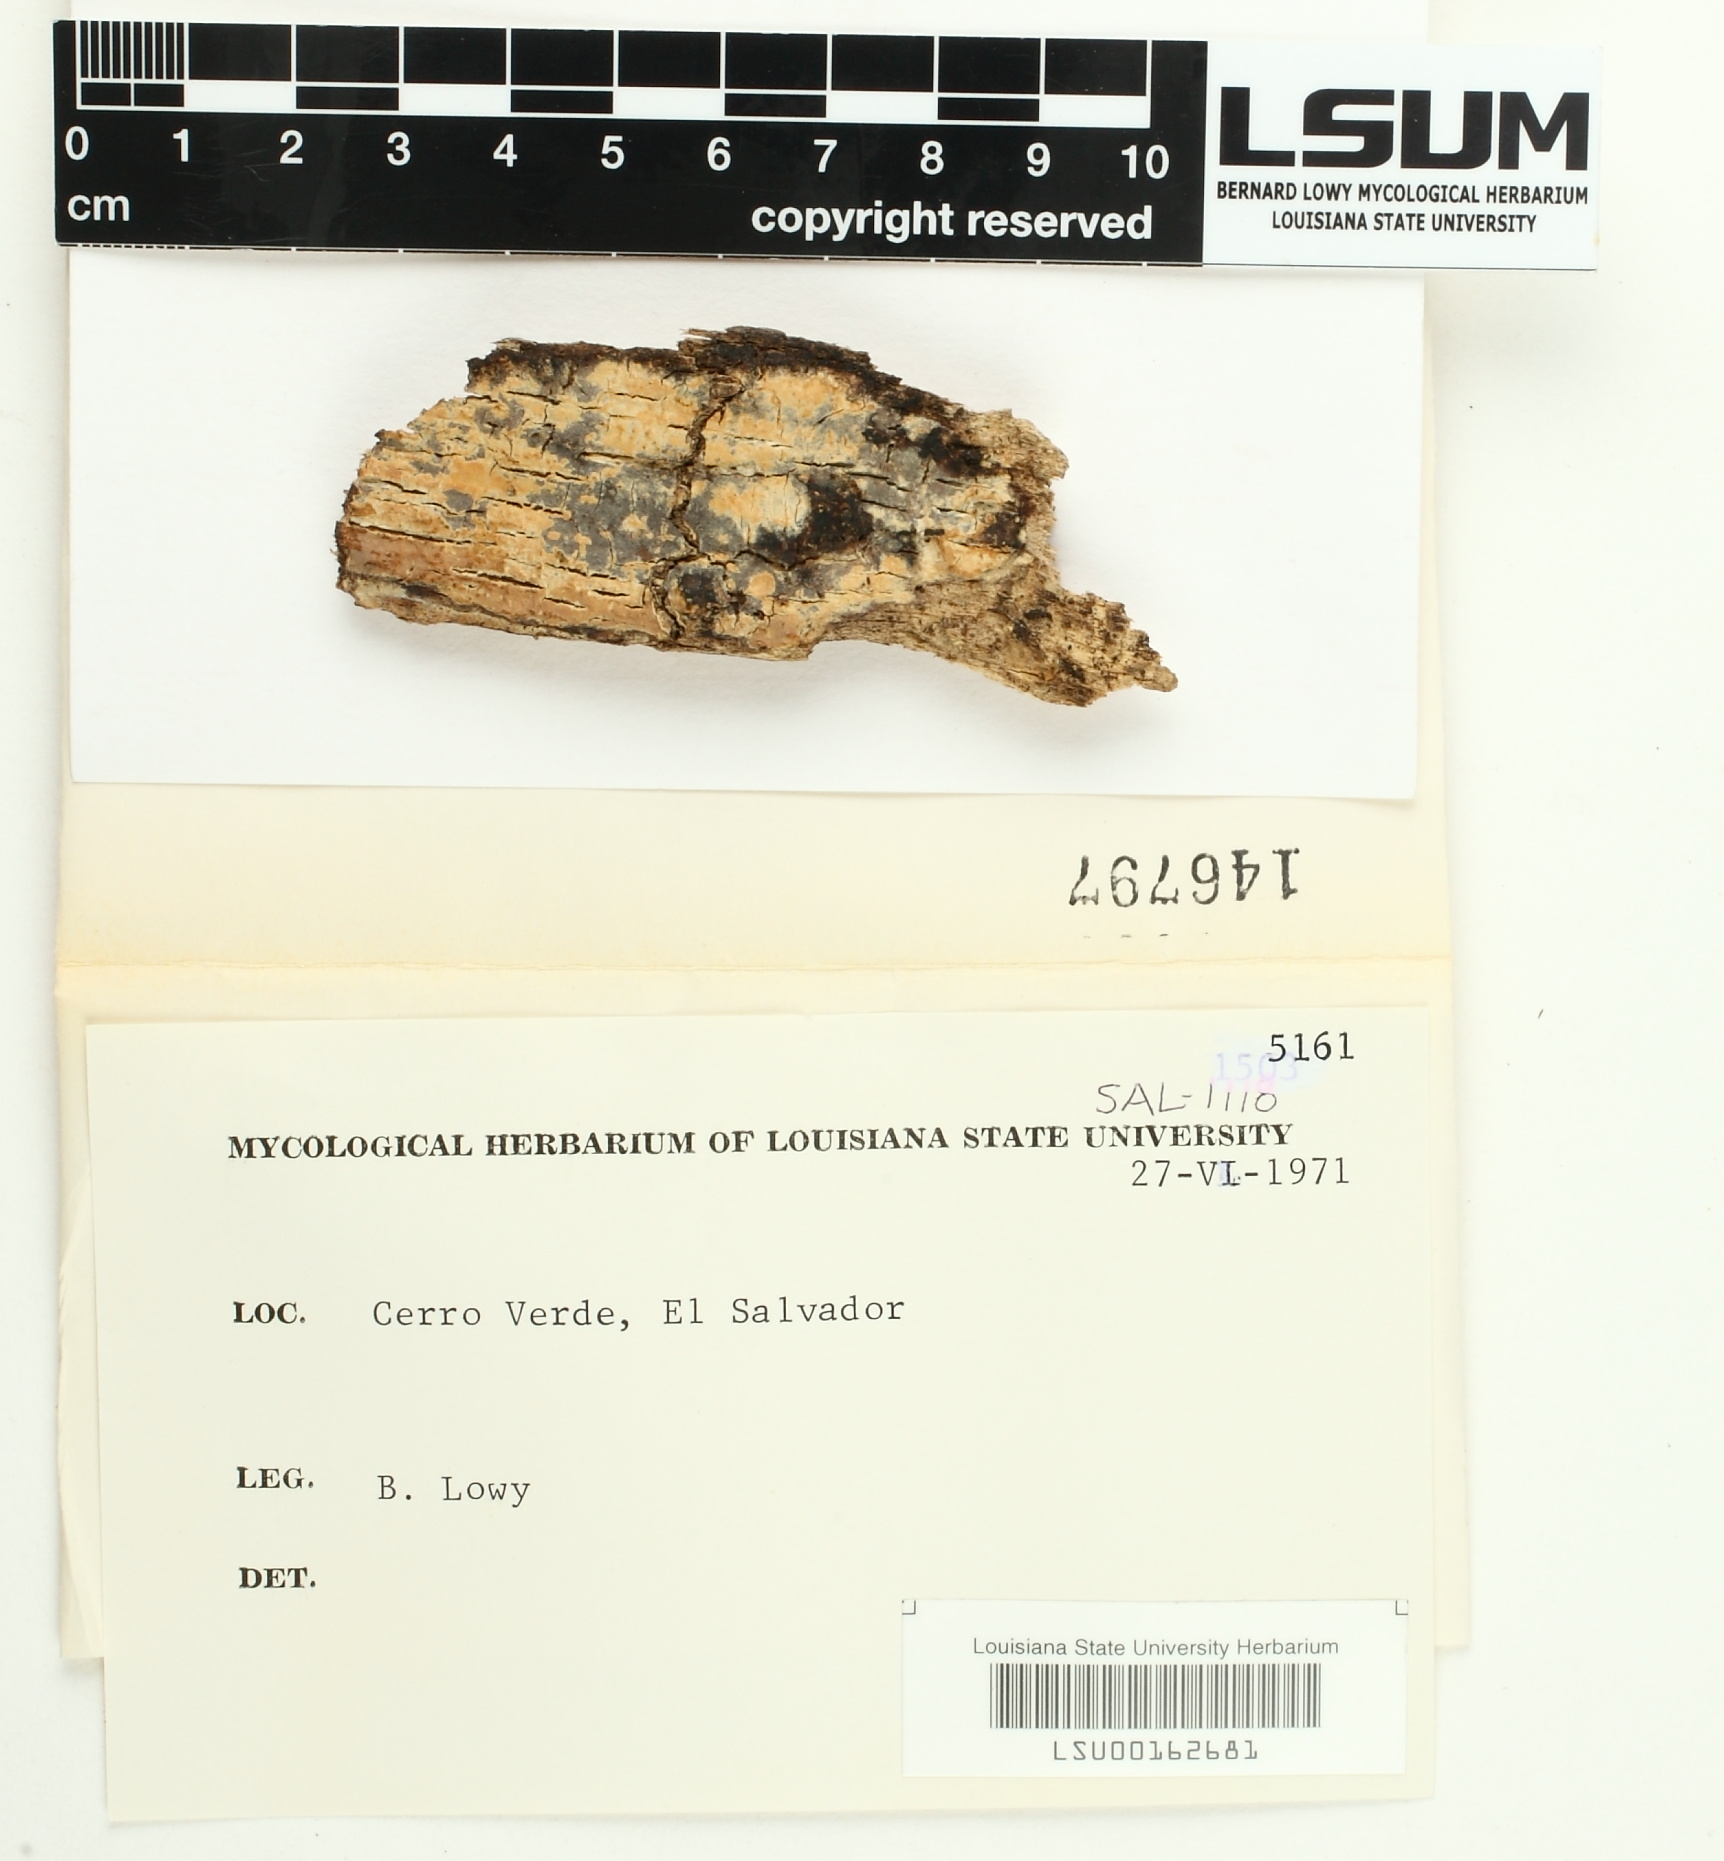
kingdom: Fungi
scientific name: Fungi
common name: Fungi
